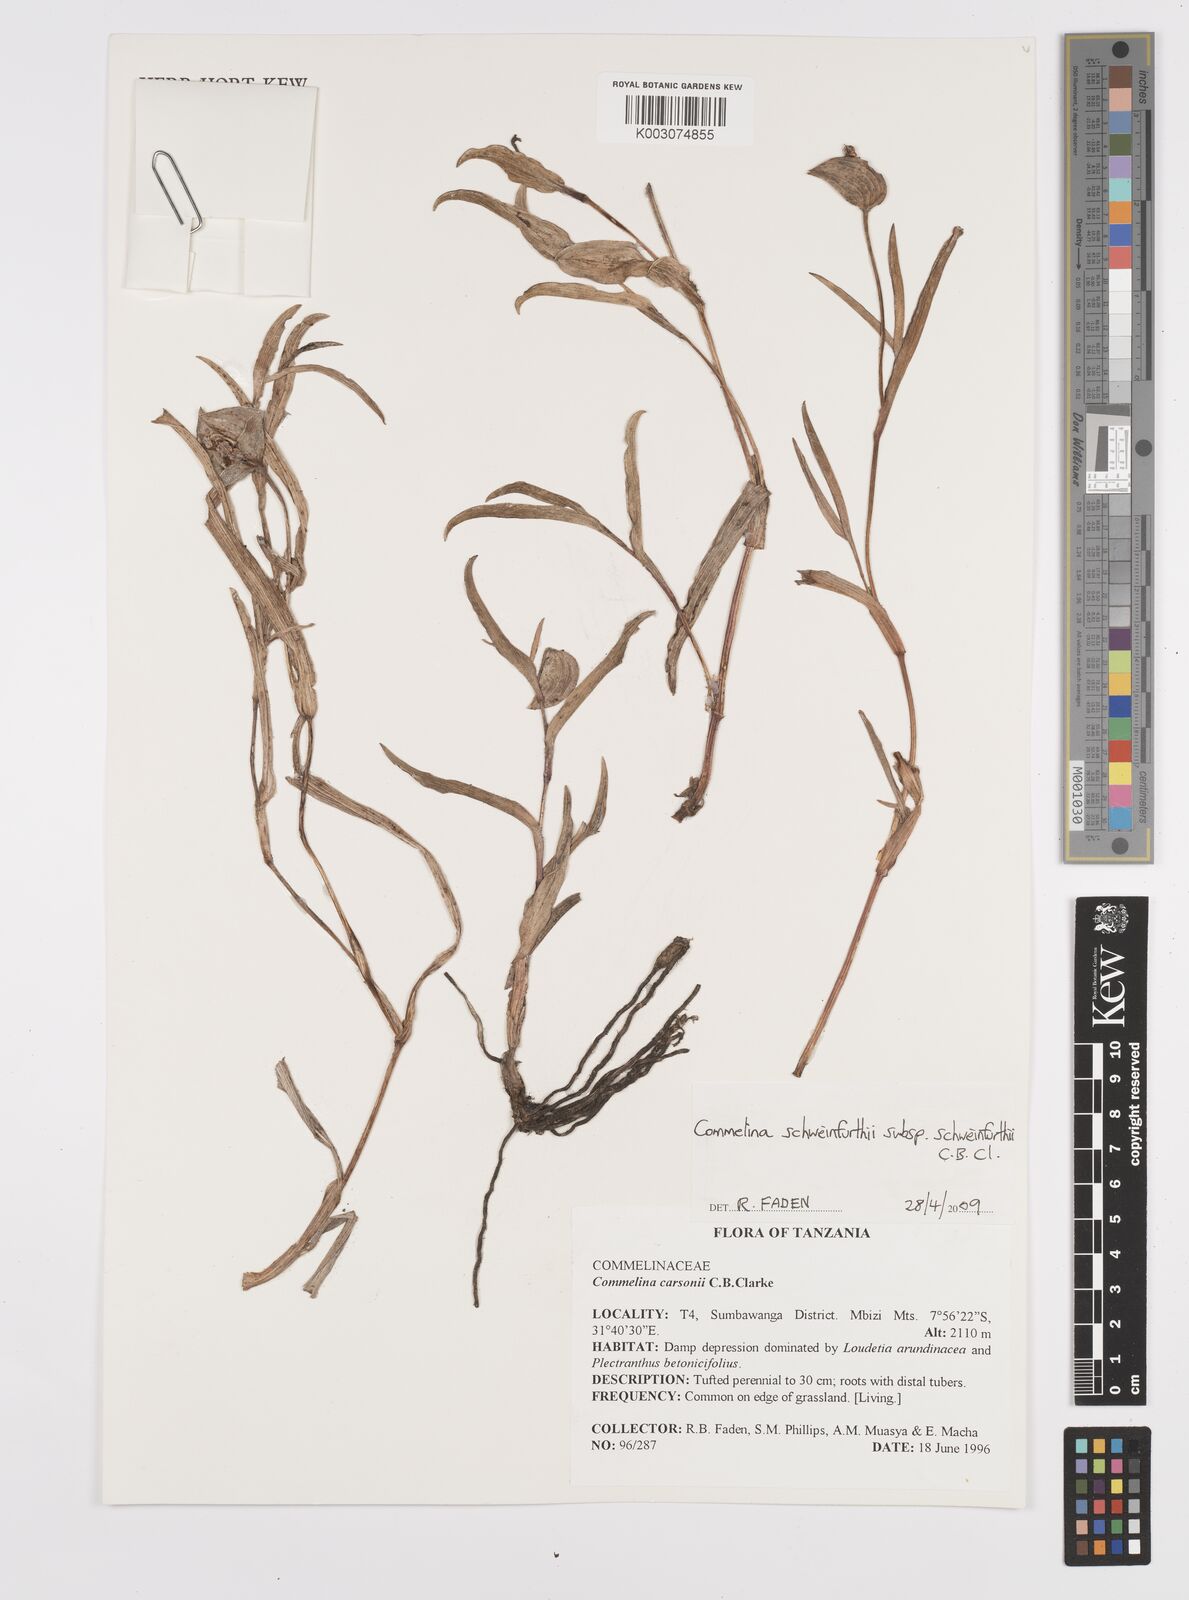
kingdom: Plantae
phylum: Tracheophyta
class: Liliopsida
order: Commelinales
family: Commelinaceae
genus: Commelina
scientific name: Commelina schweinfurthii
